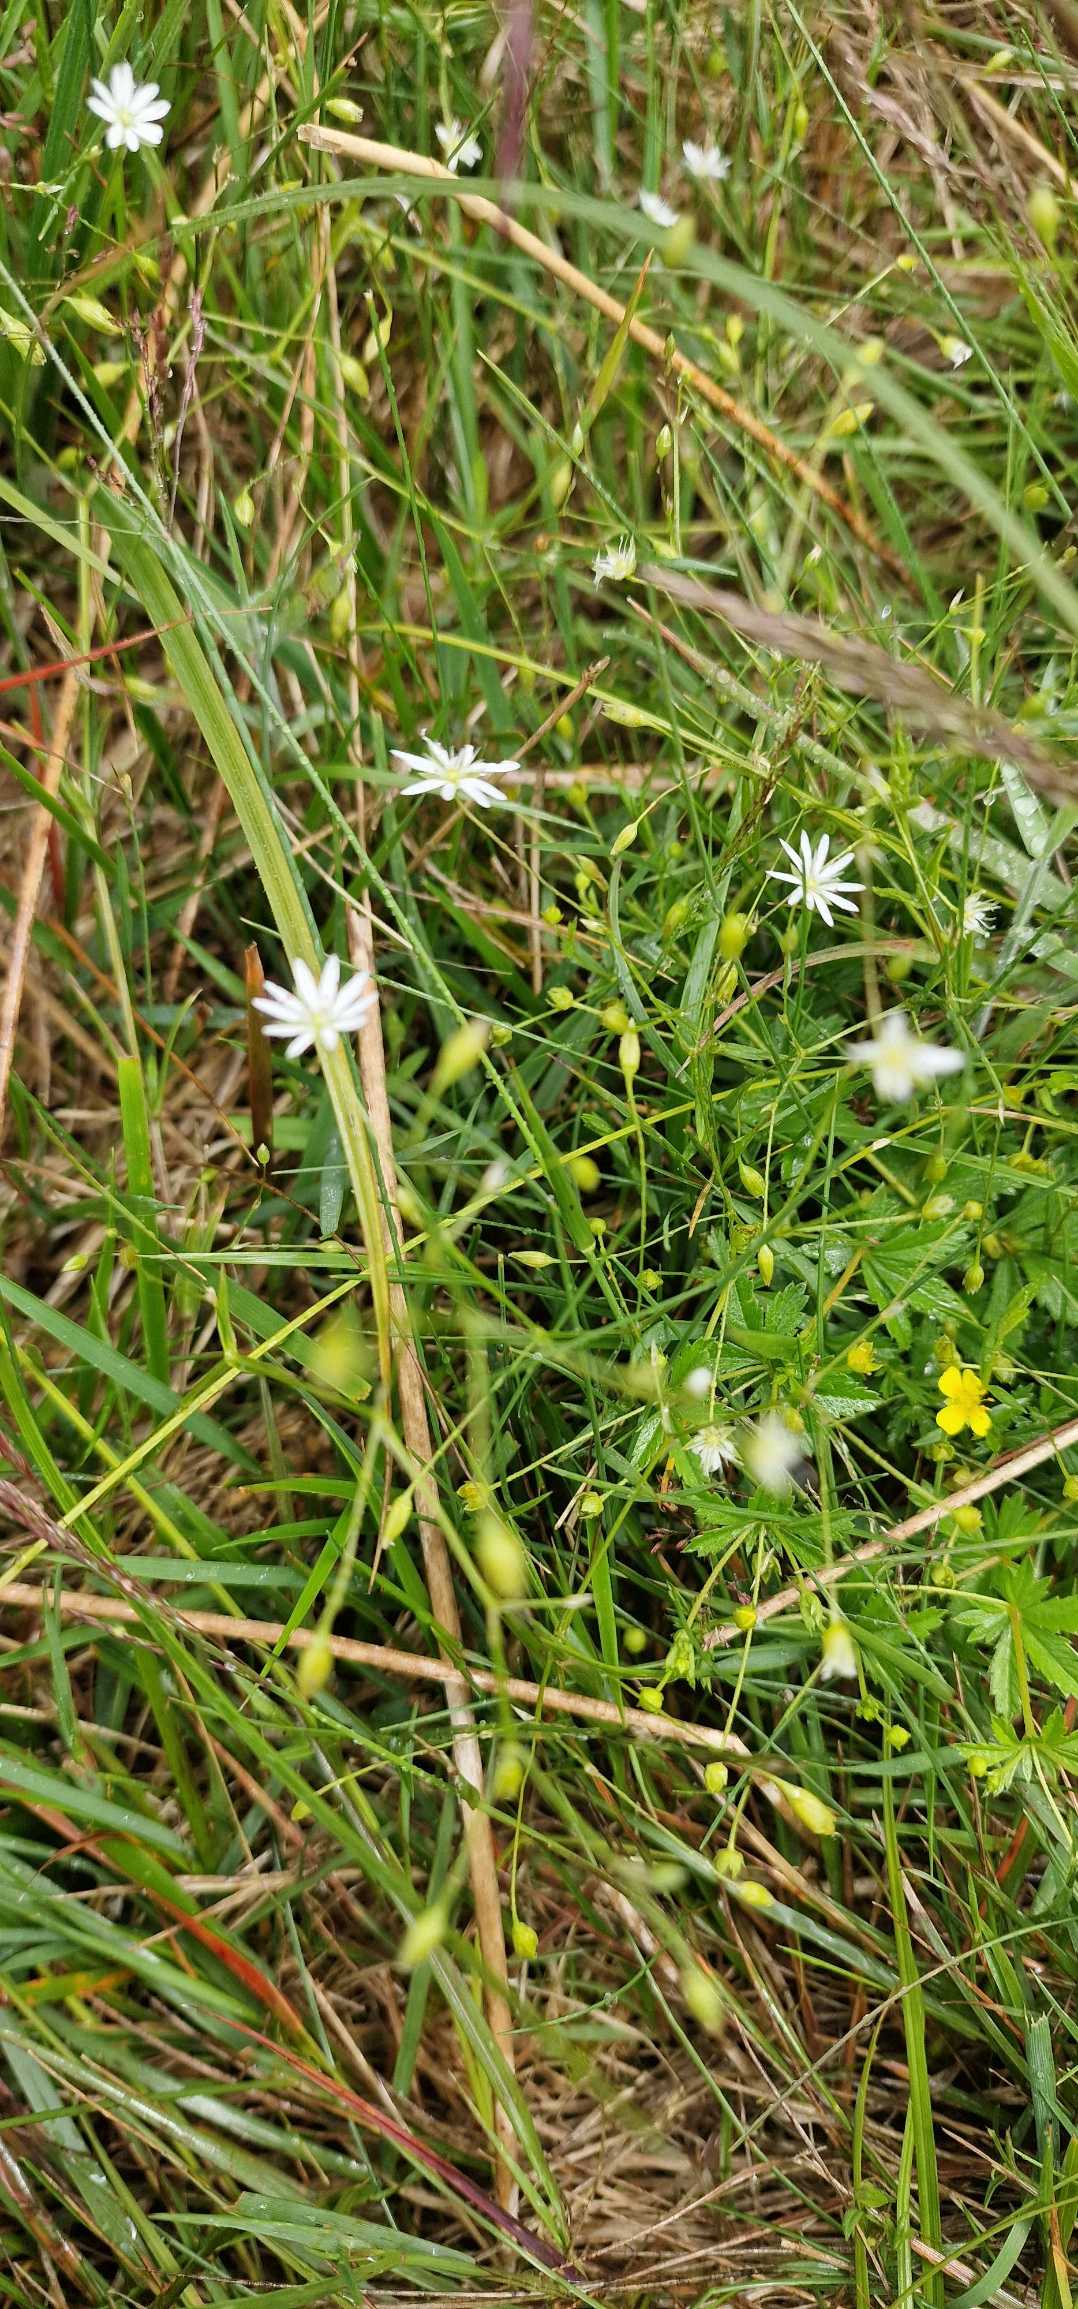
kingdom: Plantae
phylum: Tracheophyta
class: Magnoliopsida
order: Caryophyllales
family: Caryophyllaceae
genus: Stellaria
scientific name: Stellaria graminea
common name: Græsbladet fladstjerne
